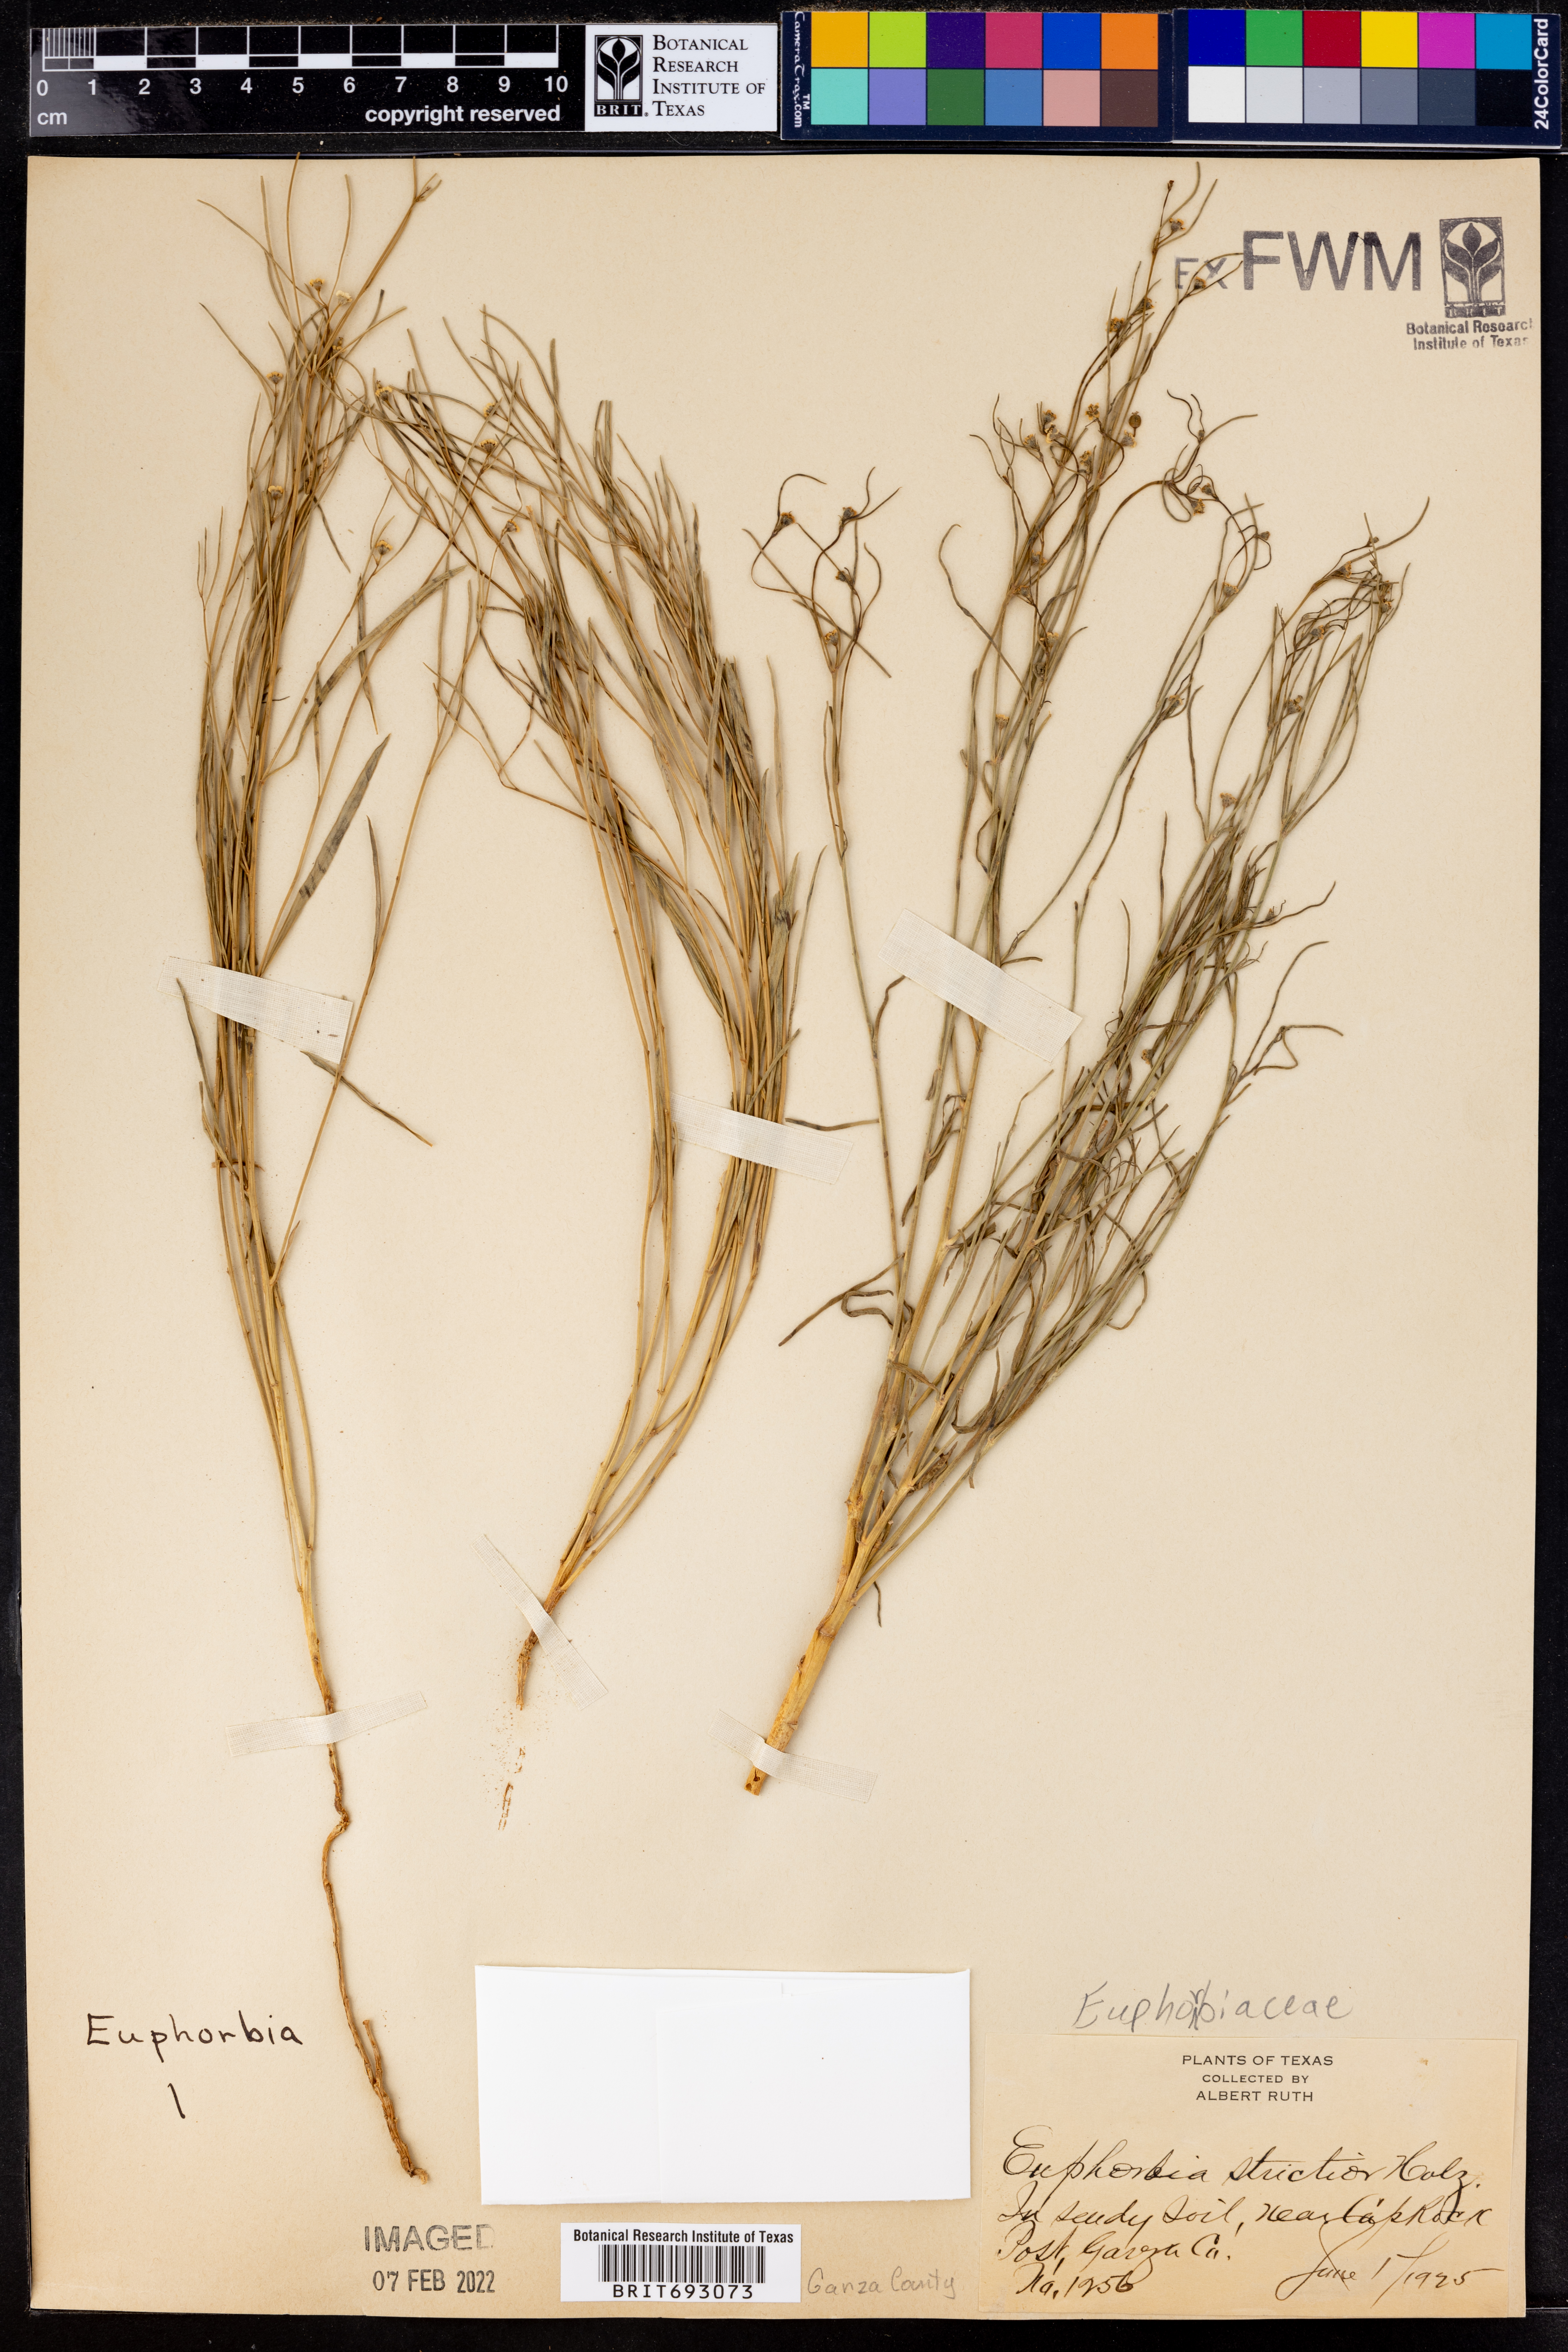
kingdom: Plantae
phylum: Tracheophyta
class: Magnoliopsida
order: Malpighiales
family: Euphorbiaceae
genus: Euphorbia
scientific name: Euphorbia strictior
